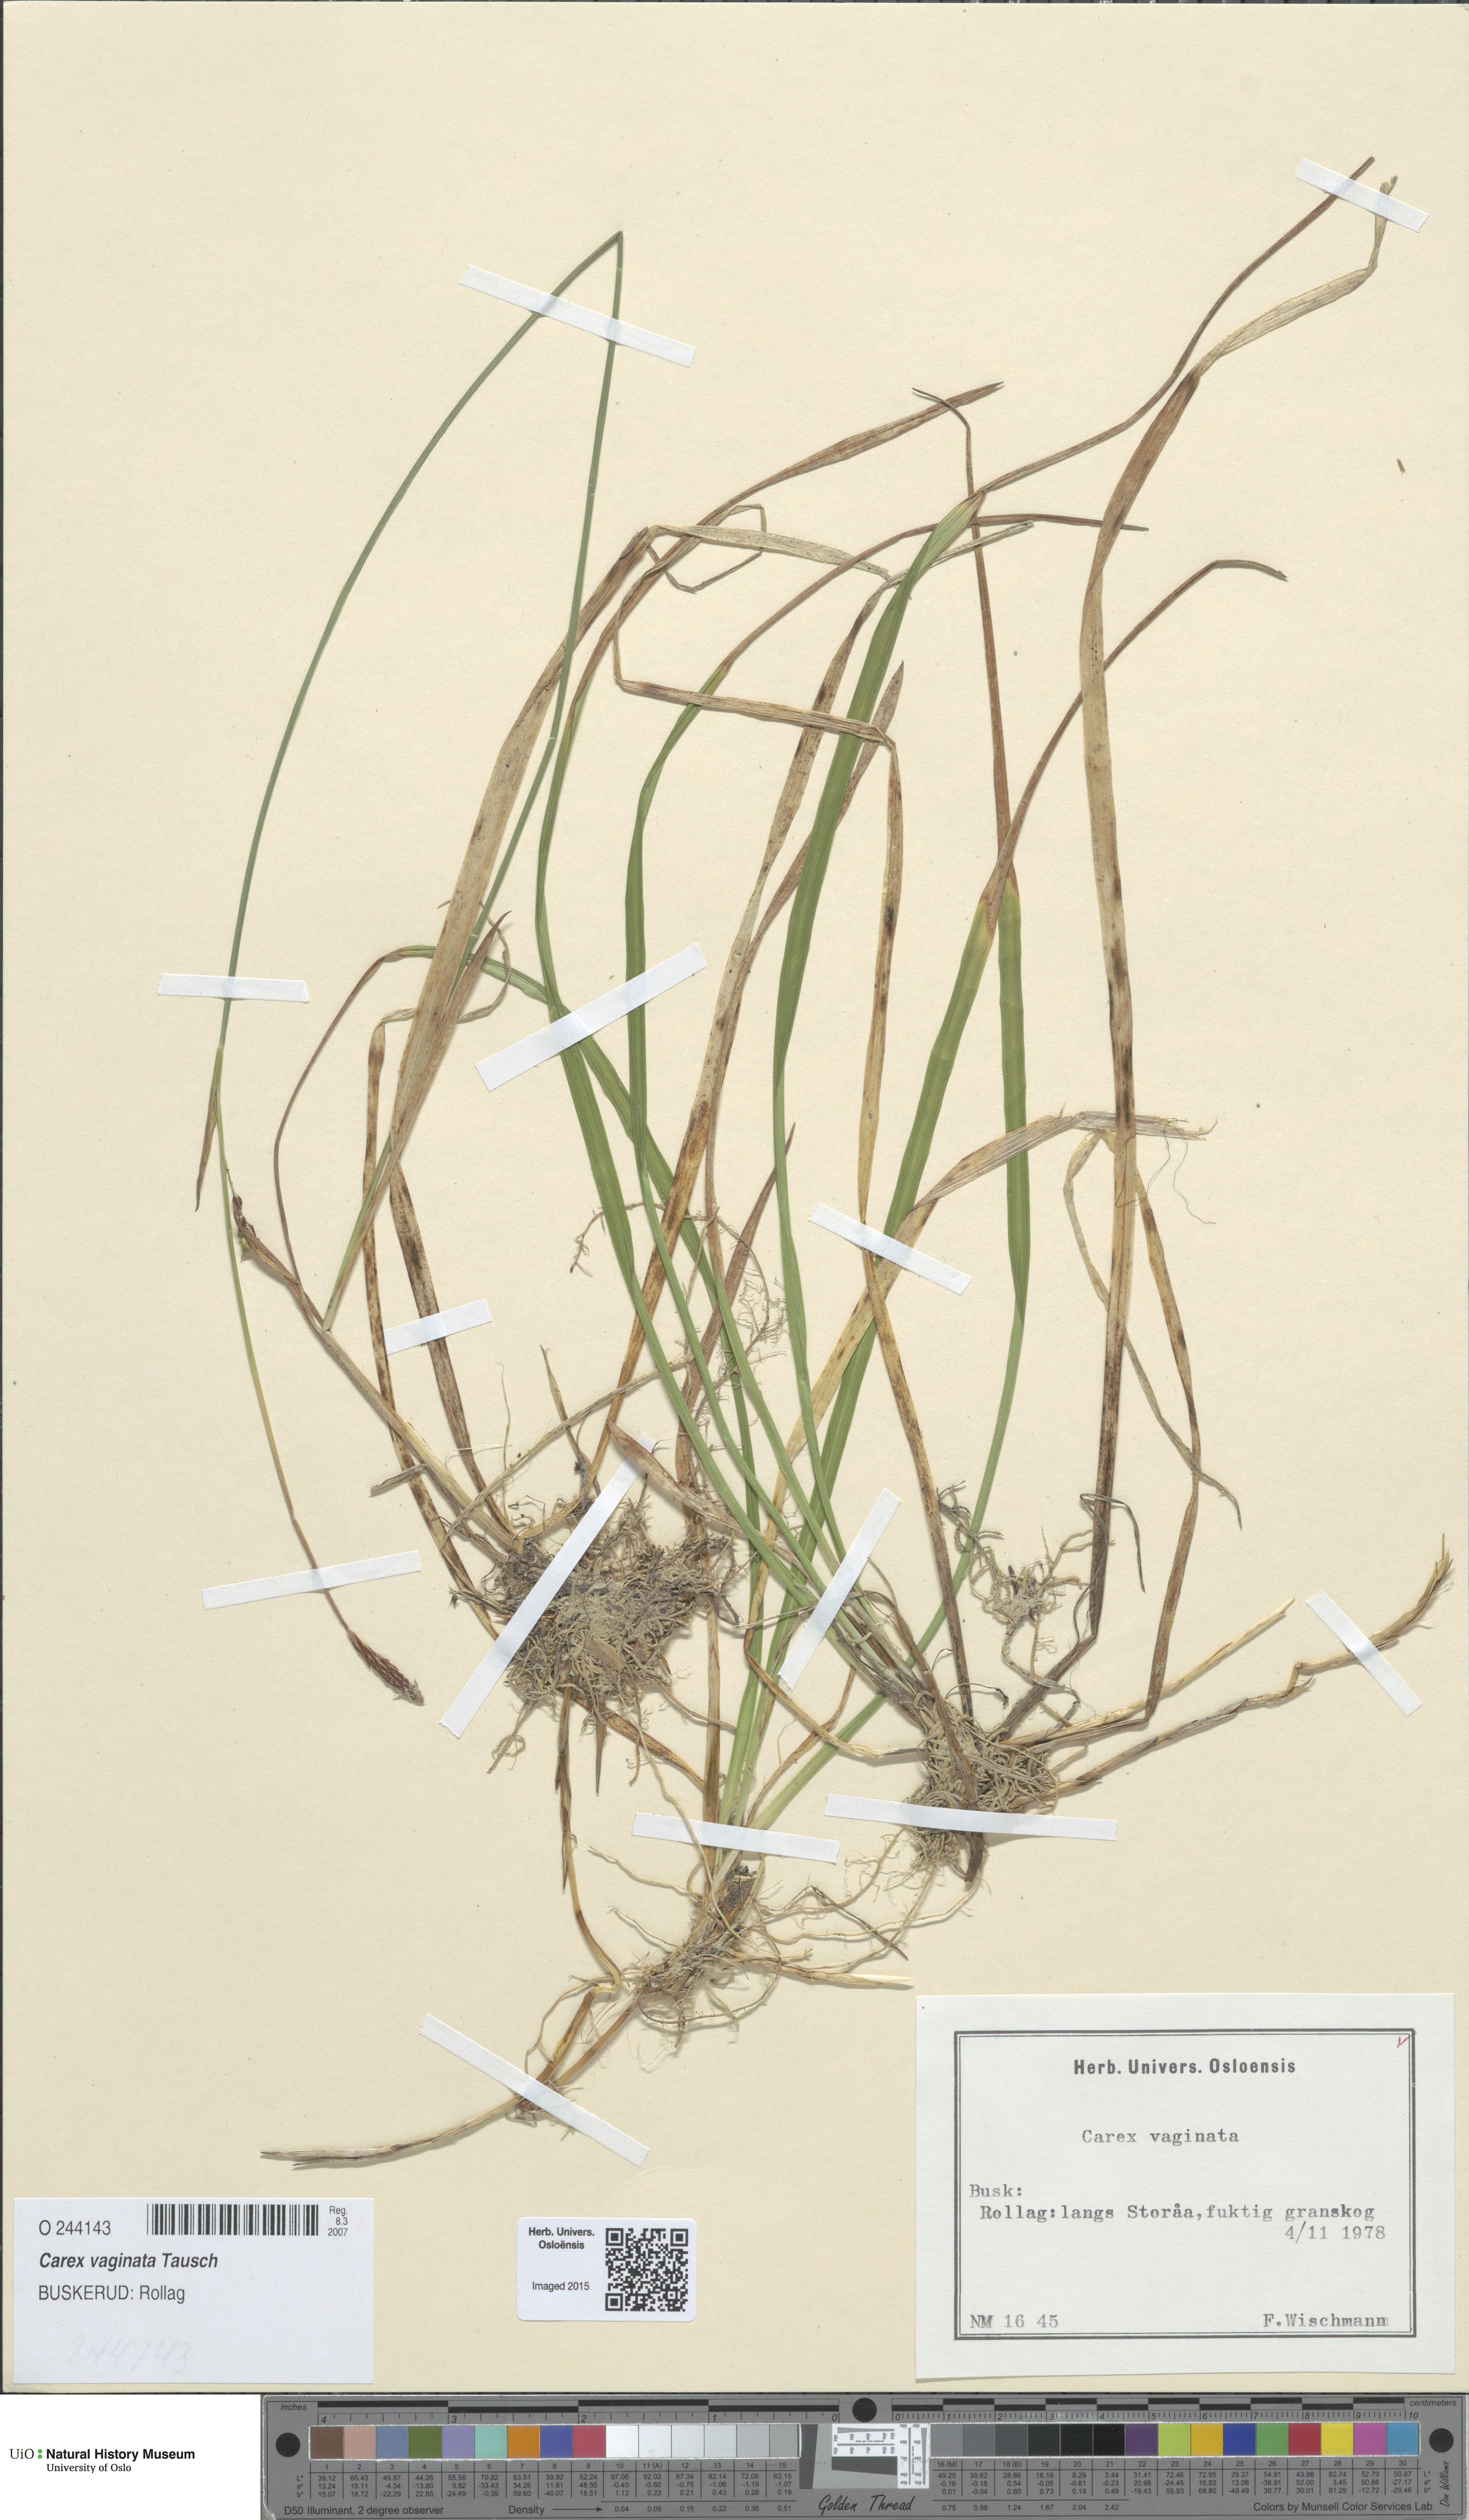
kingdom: Plantae
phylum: Tracheophyta
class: Liliopsida
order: Poales
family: Cyperaceae
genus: Carex
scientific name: Carex vaginata
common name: Sheathed sedge
